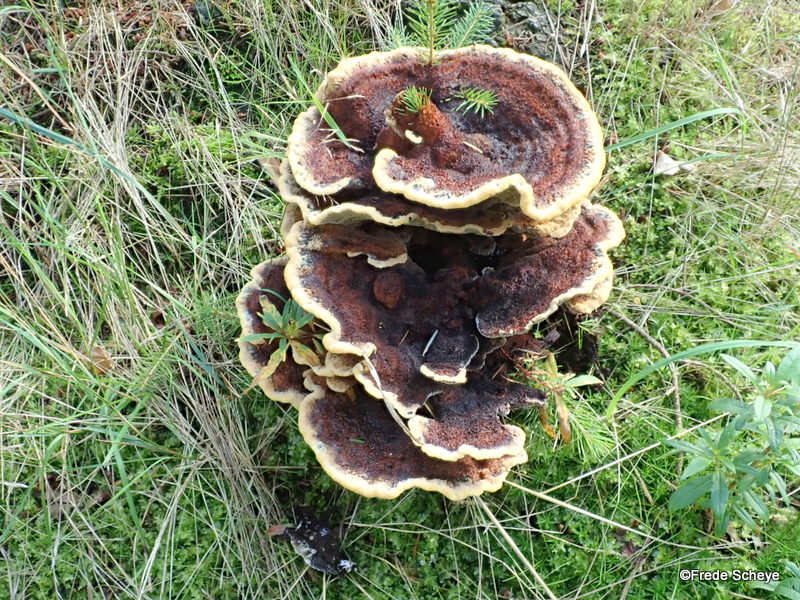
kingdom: Fungi
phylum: Basidiomycota
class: Agaricomycetes
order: Polyporales
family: Laetiporaceae
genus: Phaeolus
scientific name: Phaeolus schweinitzii
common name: brunporesvamp
